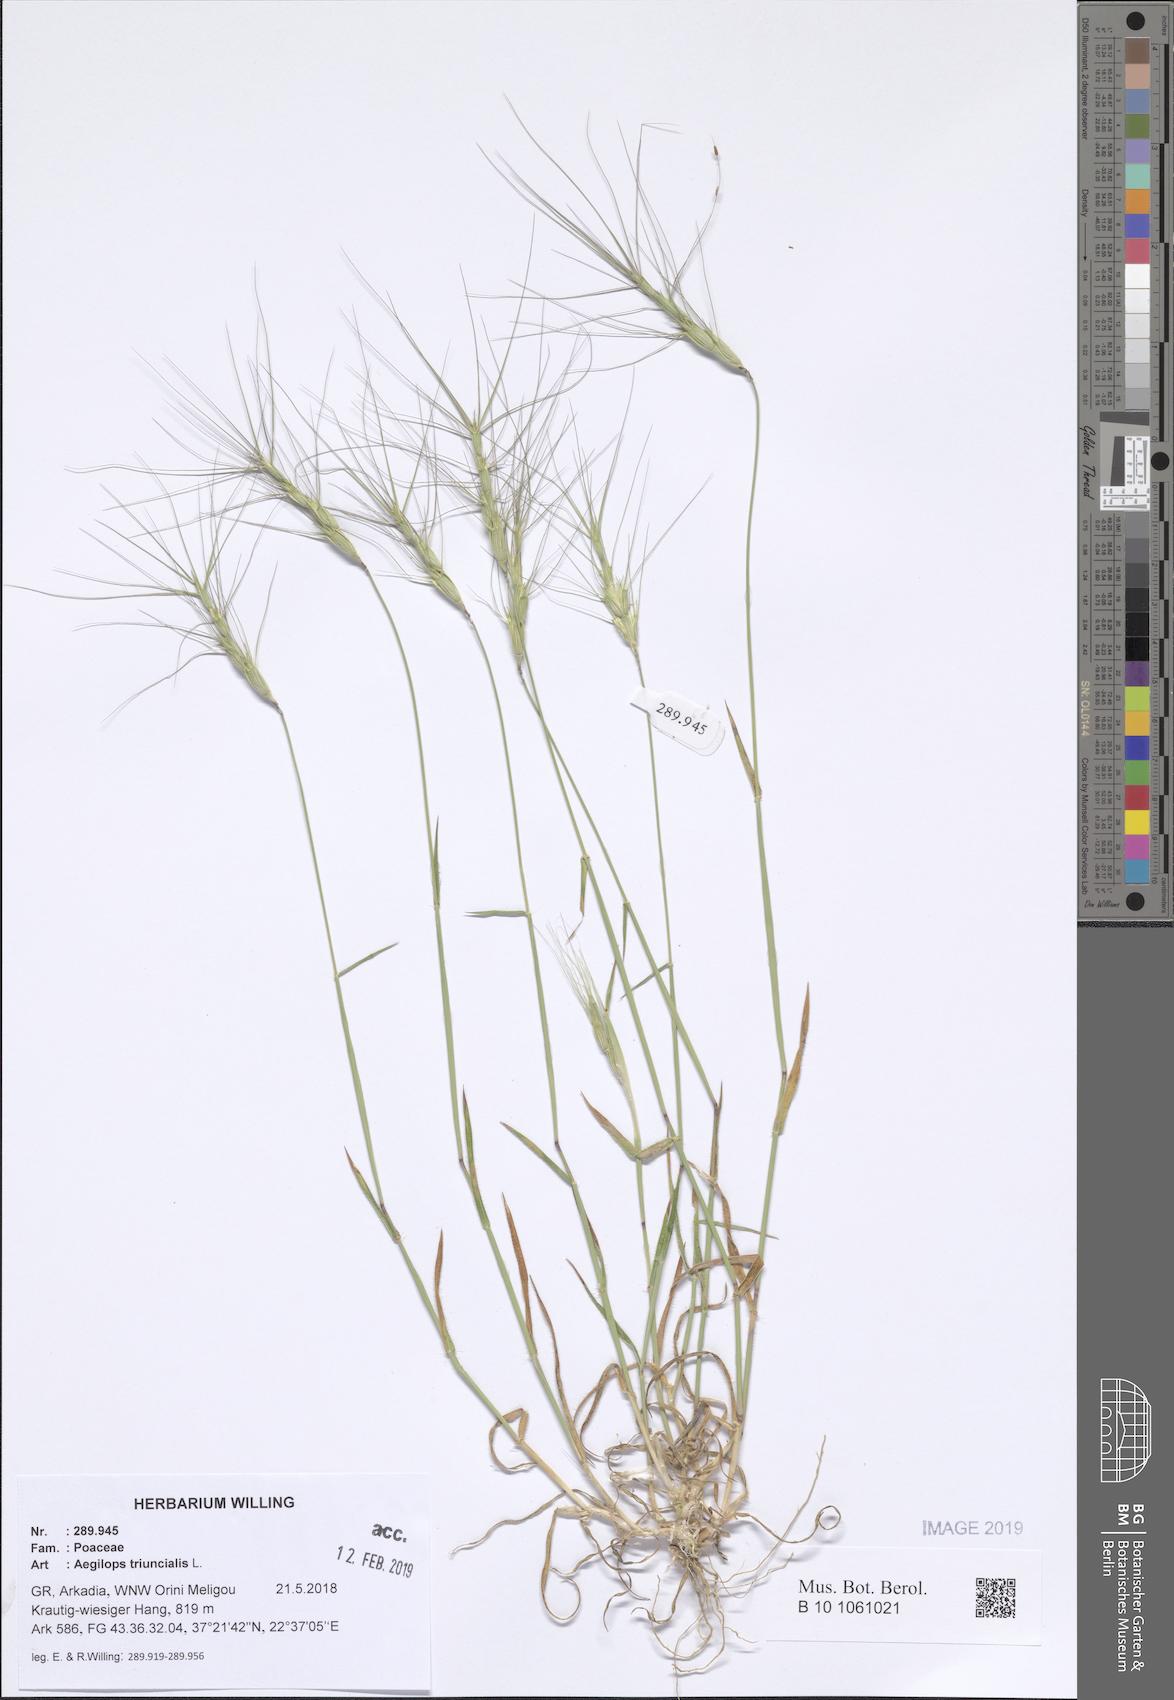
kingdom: Plantae
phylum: Tracheophyta
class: Liliopsida
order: Poales
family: Poaceae
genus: Aegilops
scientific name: Aegilops triuncialis
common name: Barb goat grass
